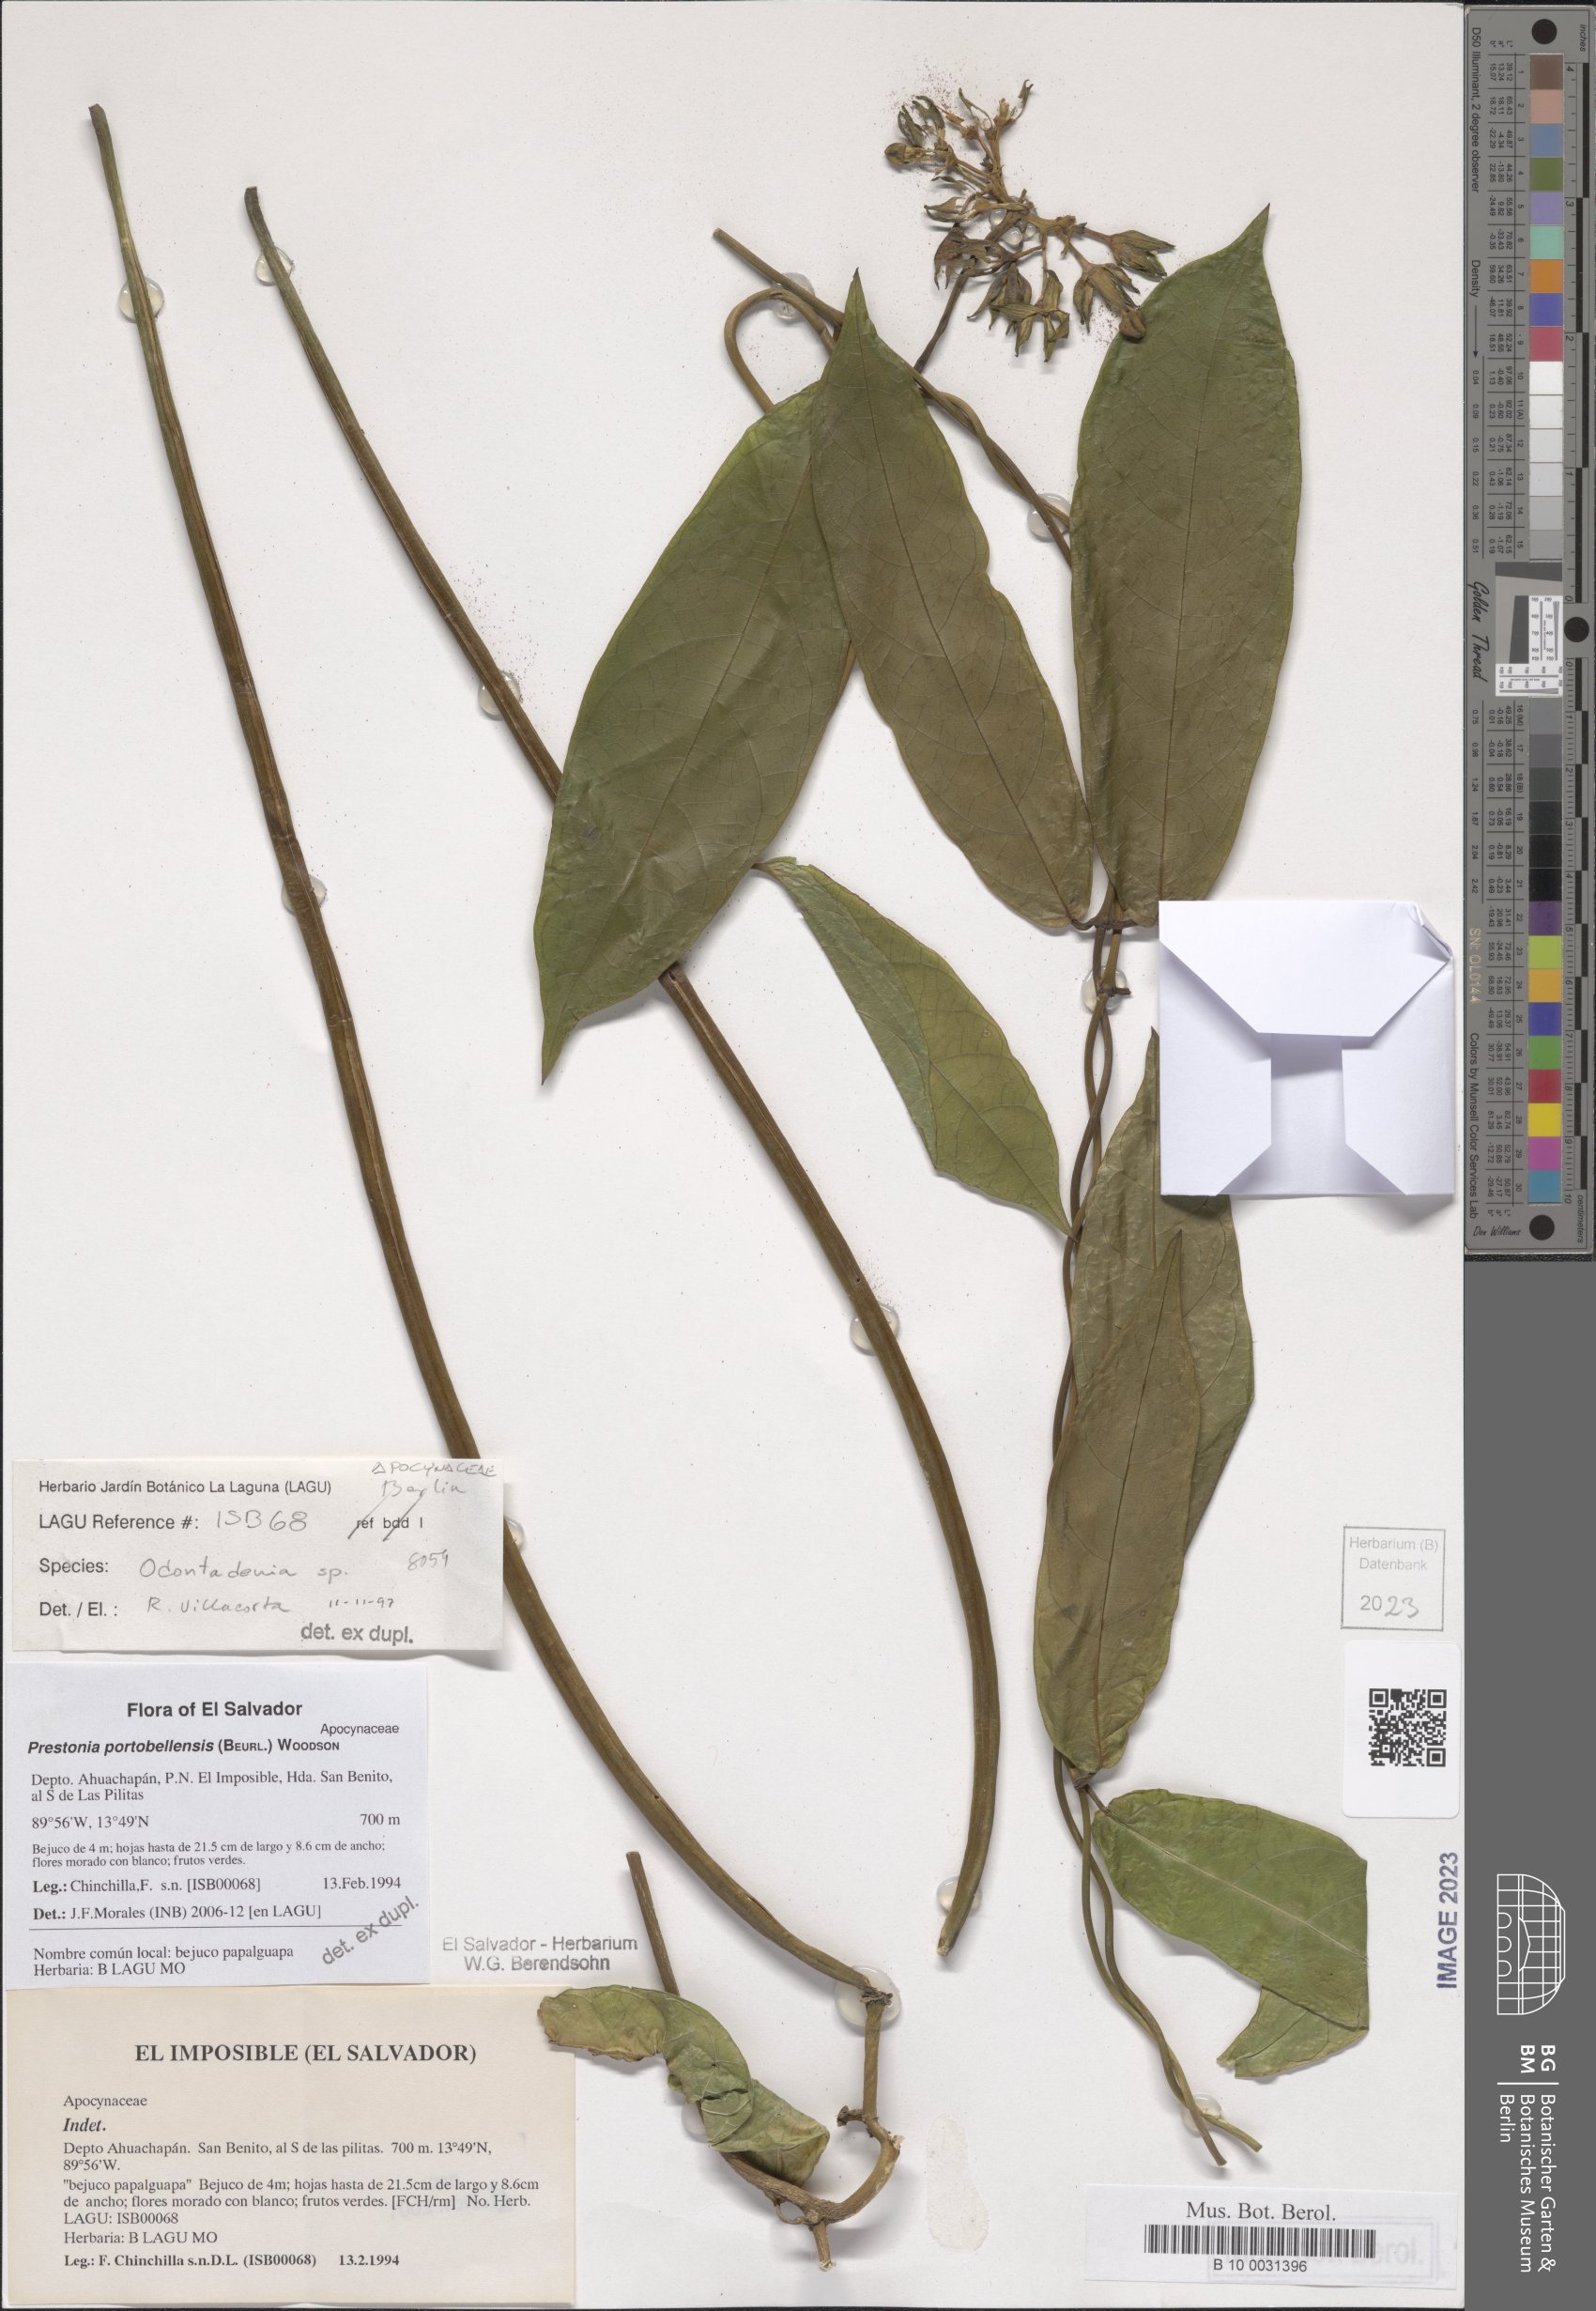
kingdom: Plantae
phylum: Tracheophyta
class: Magnoliopsida
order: Gentianales
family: Apocynaceae
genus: Prestonia
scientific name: Prestonia portobellensis
